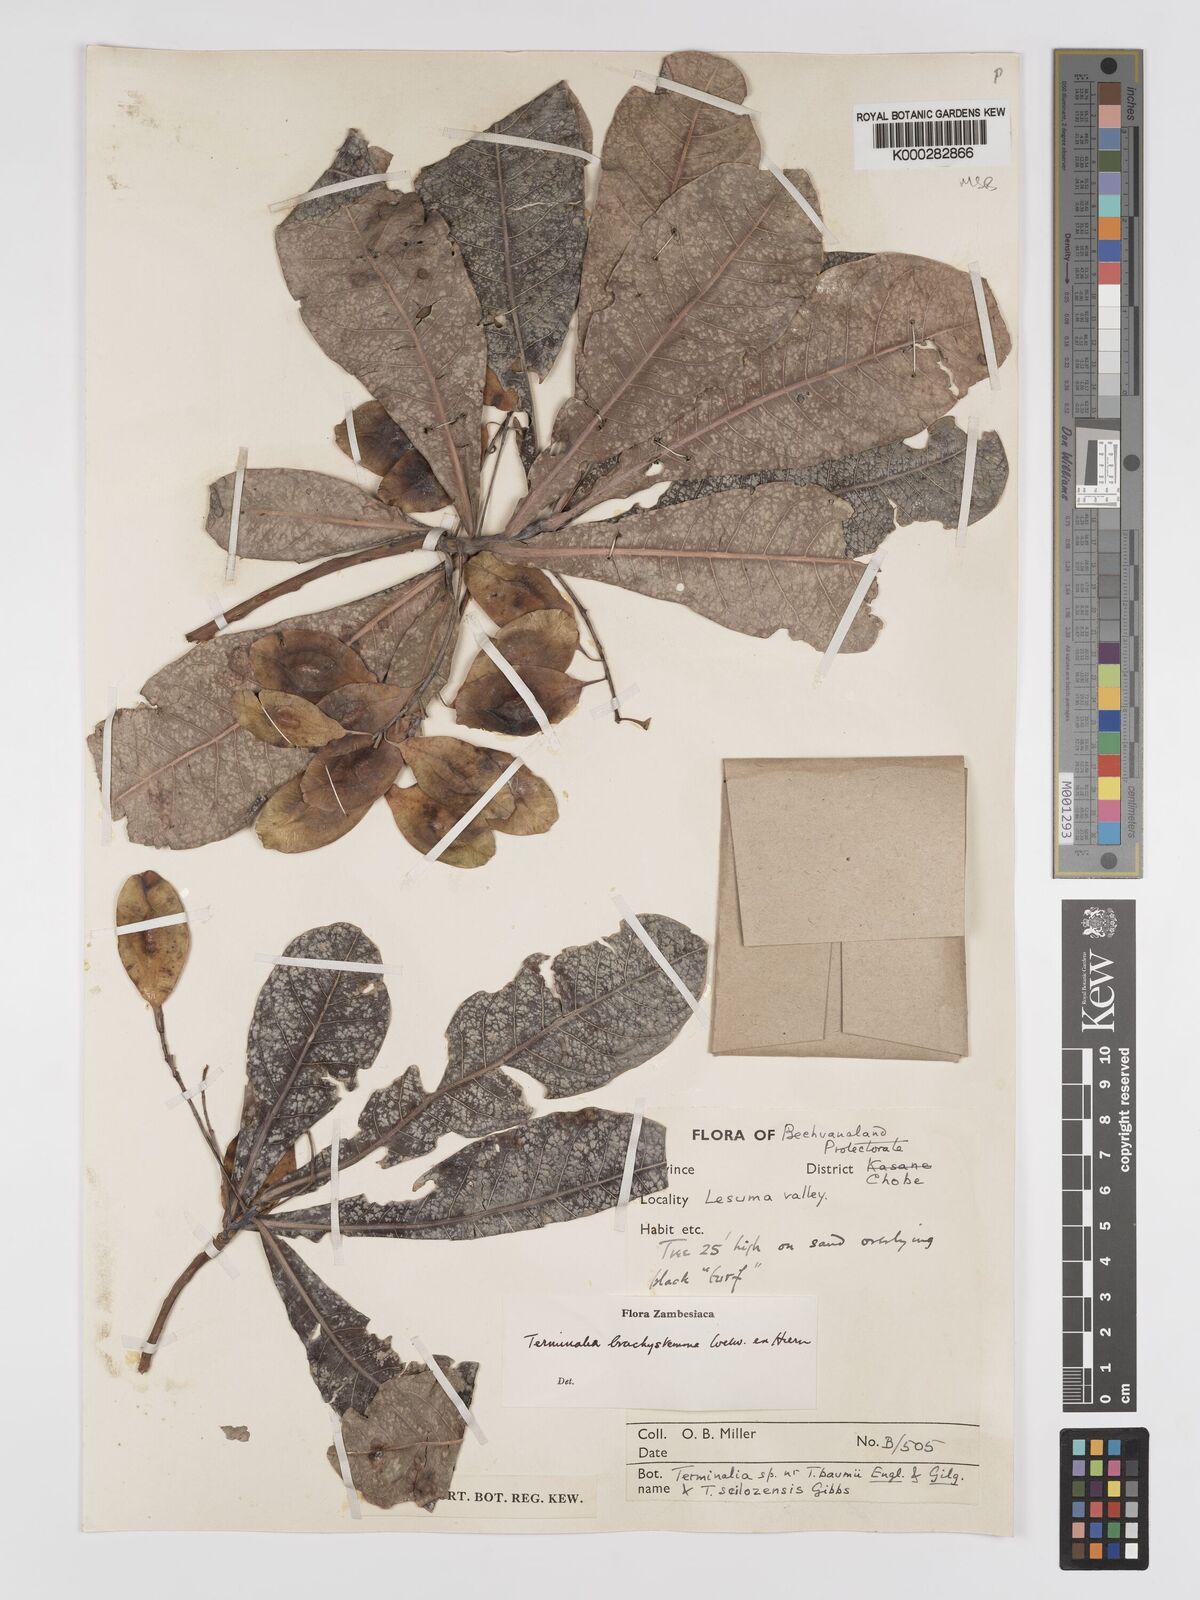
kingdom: Plantae
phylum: Tracheophyta
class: Magnoliopsida
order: Myrtales
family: Combretaceae
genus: Terminalia
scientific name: Terminalia brachystemma
